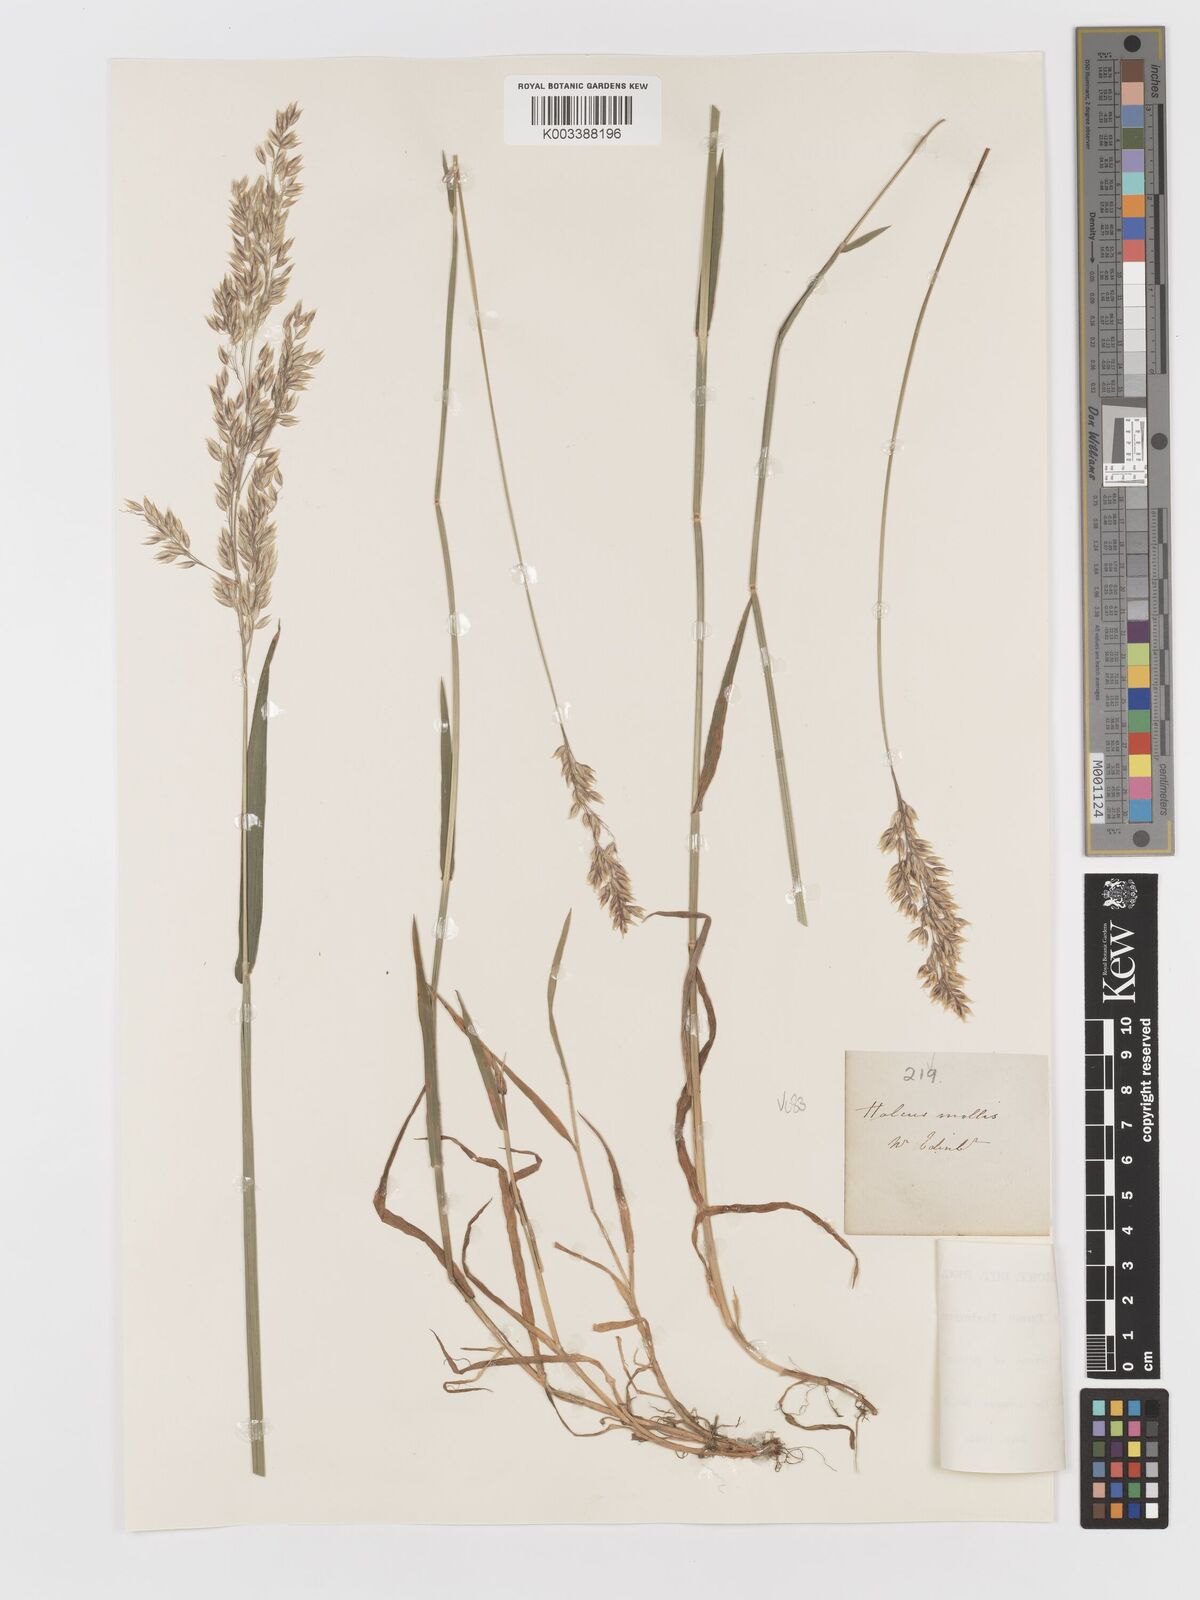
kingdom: Plantae
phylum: Tracheophyta
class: Liliopsida
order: Poales
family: Poaceae
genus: Holcus
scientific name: Holcus mollis
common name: Creeping velvetgrass
